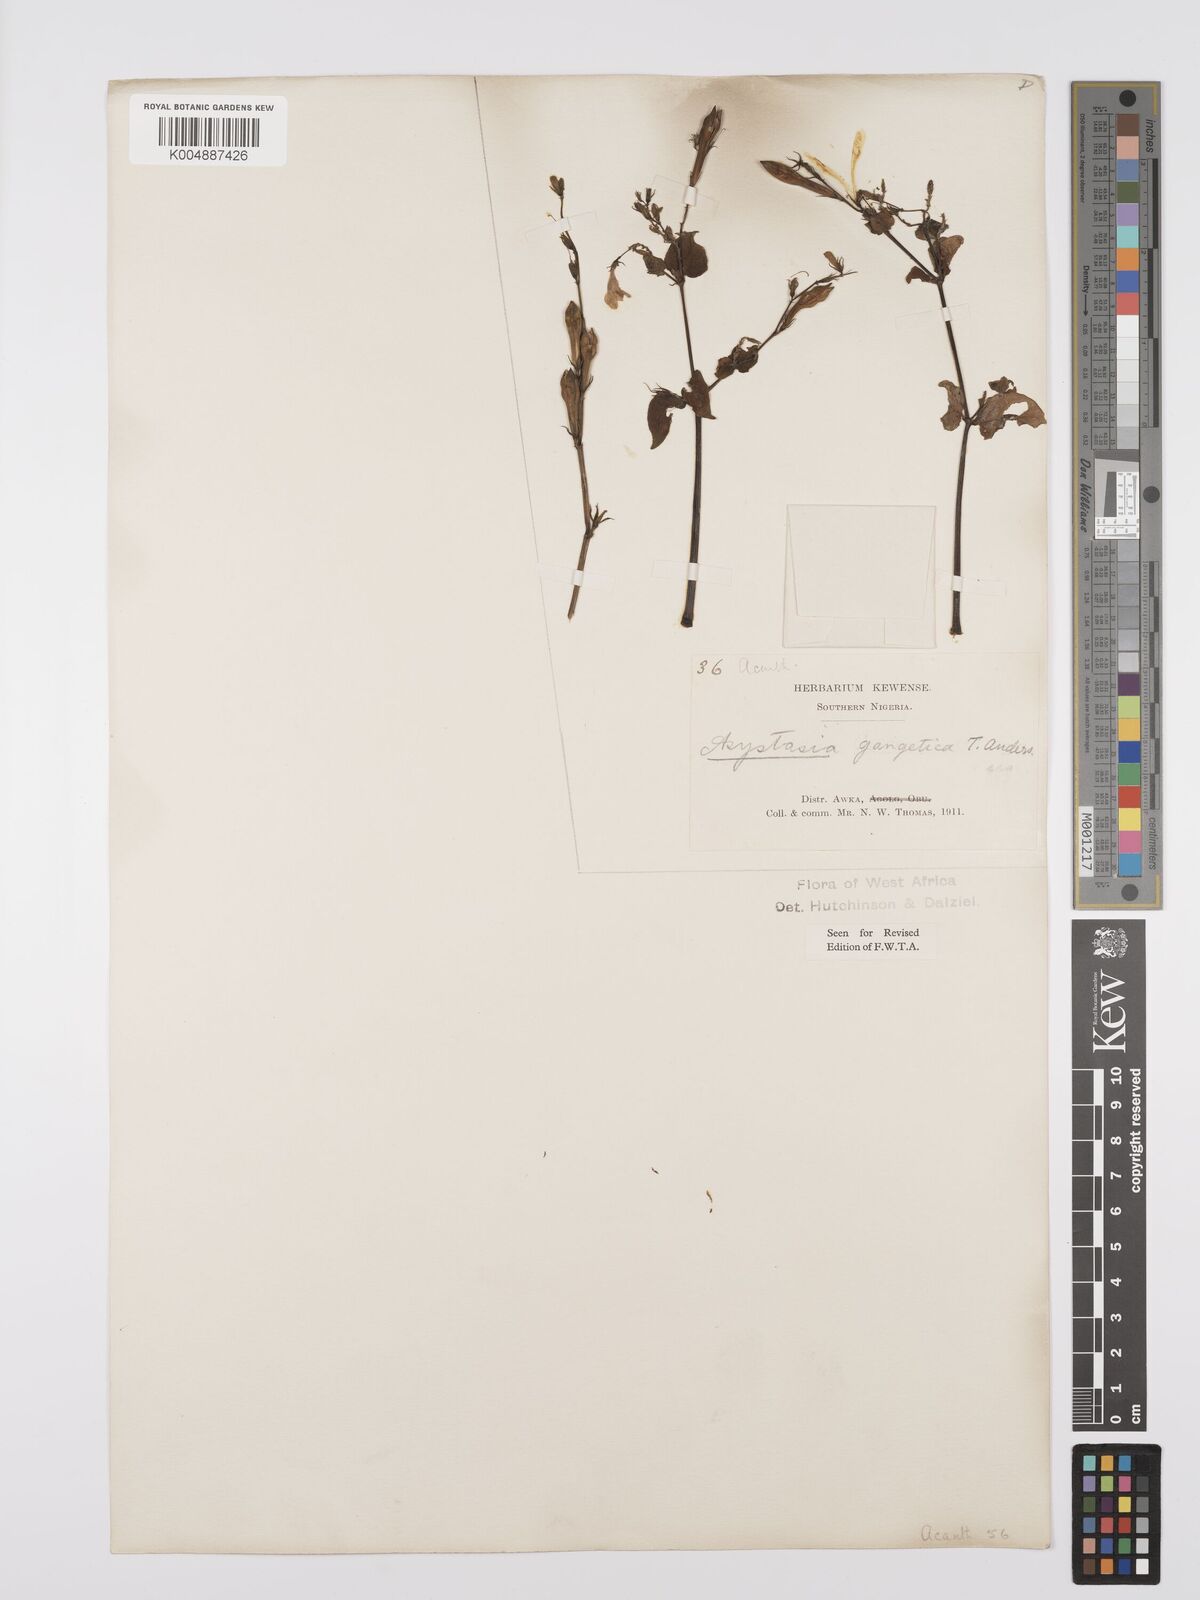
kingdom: Plantae
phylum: Tracheophyta
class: Magnoliopsida
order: Lamiales
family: Acanthaceae
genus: Asystasia
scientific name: Asystasia gangetica
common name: Chinese violet
